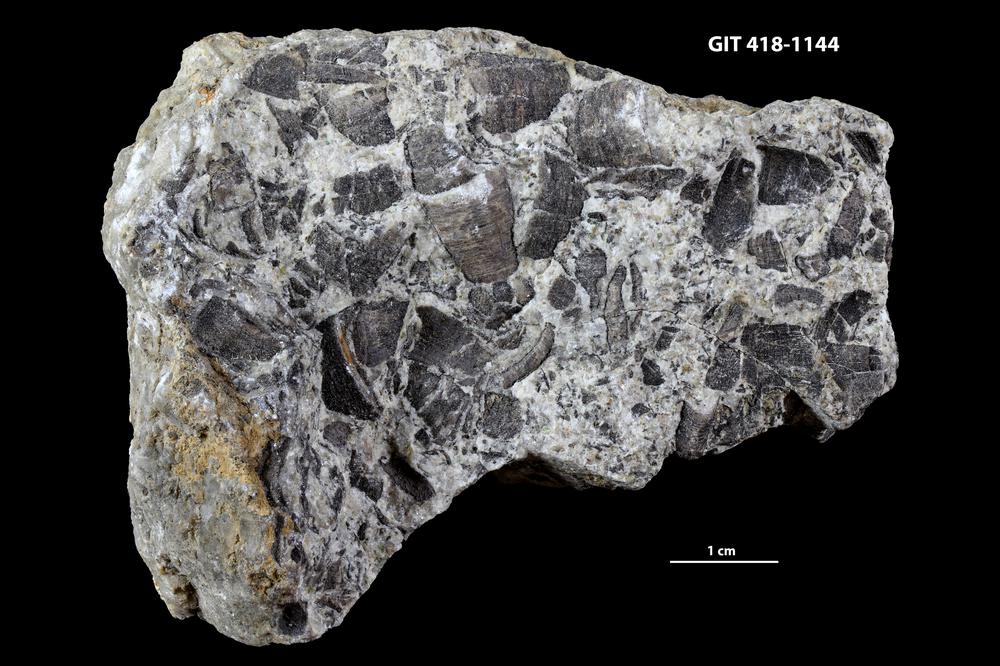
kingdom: Animalia
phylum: Porifera
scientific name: Porifera
